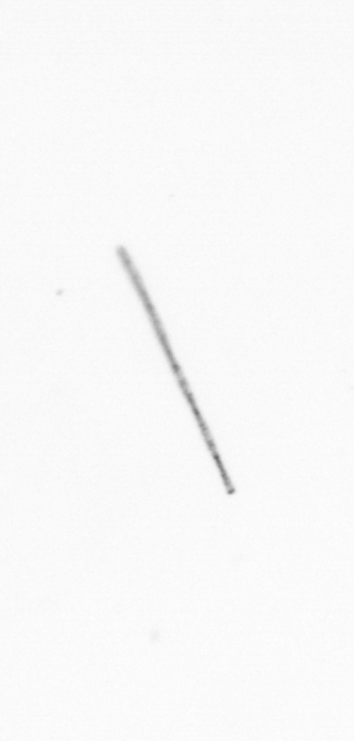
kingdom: Chromista
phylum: Ochrophyta
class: Bacillariophyceae
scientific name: Bacillariophyceae
